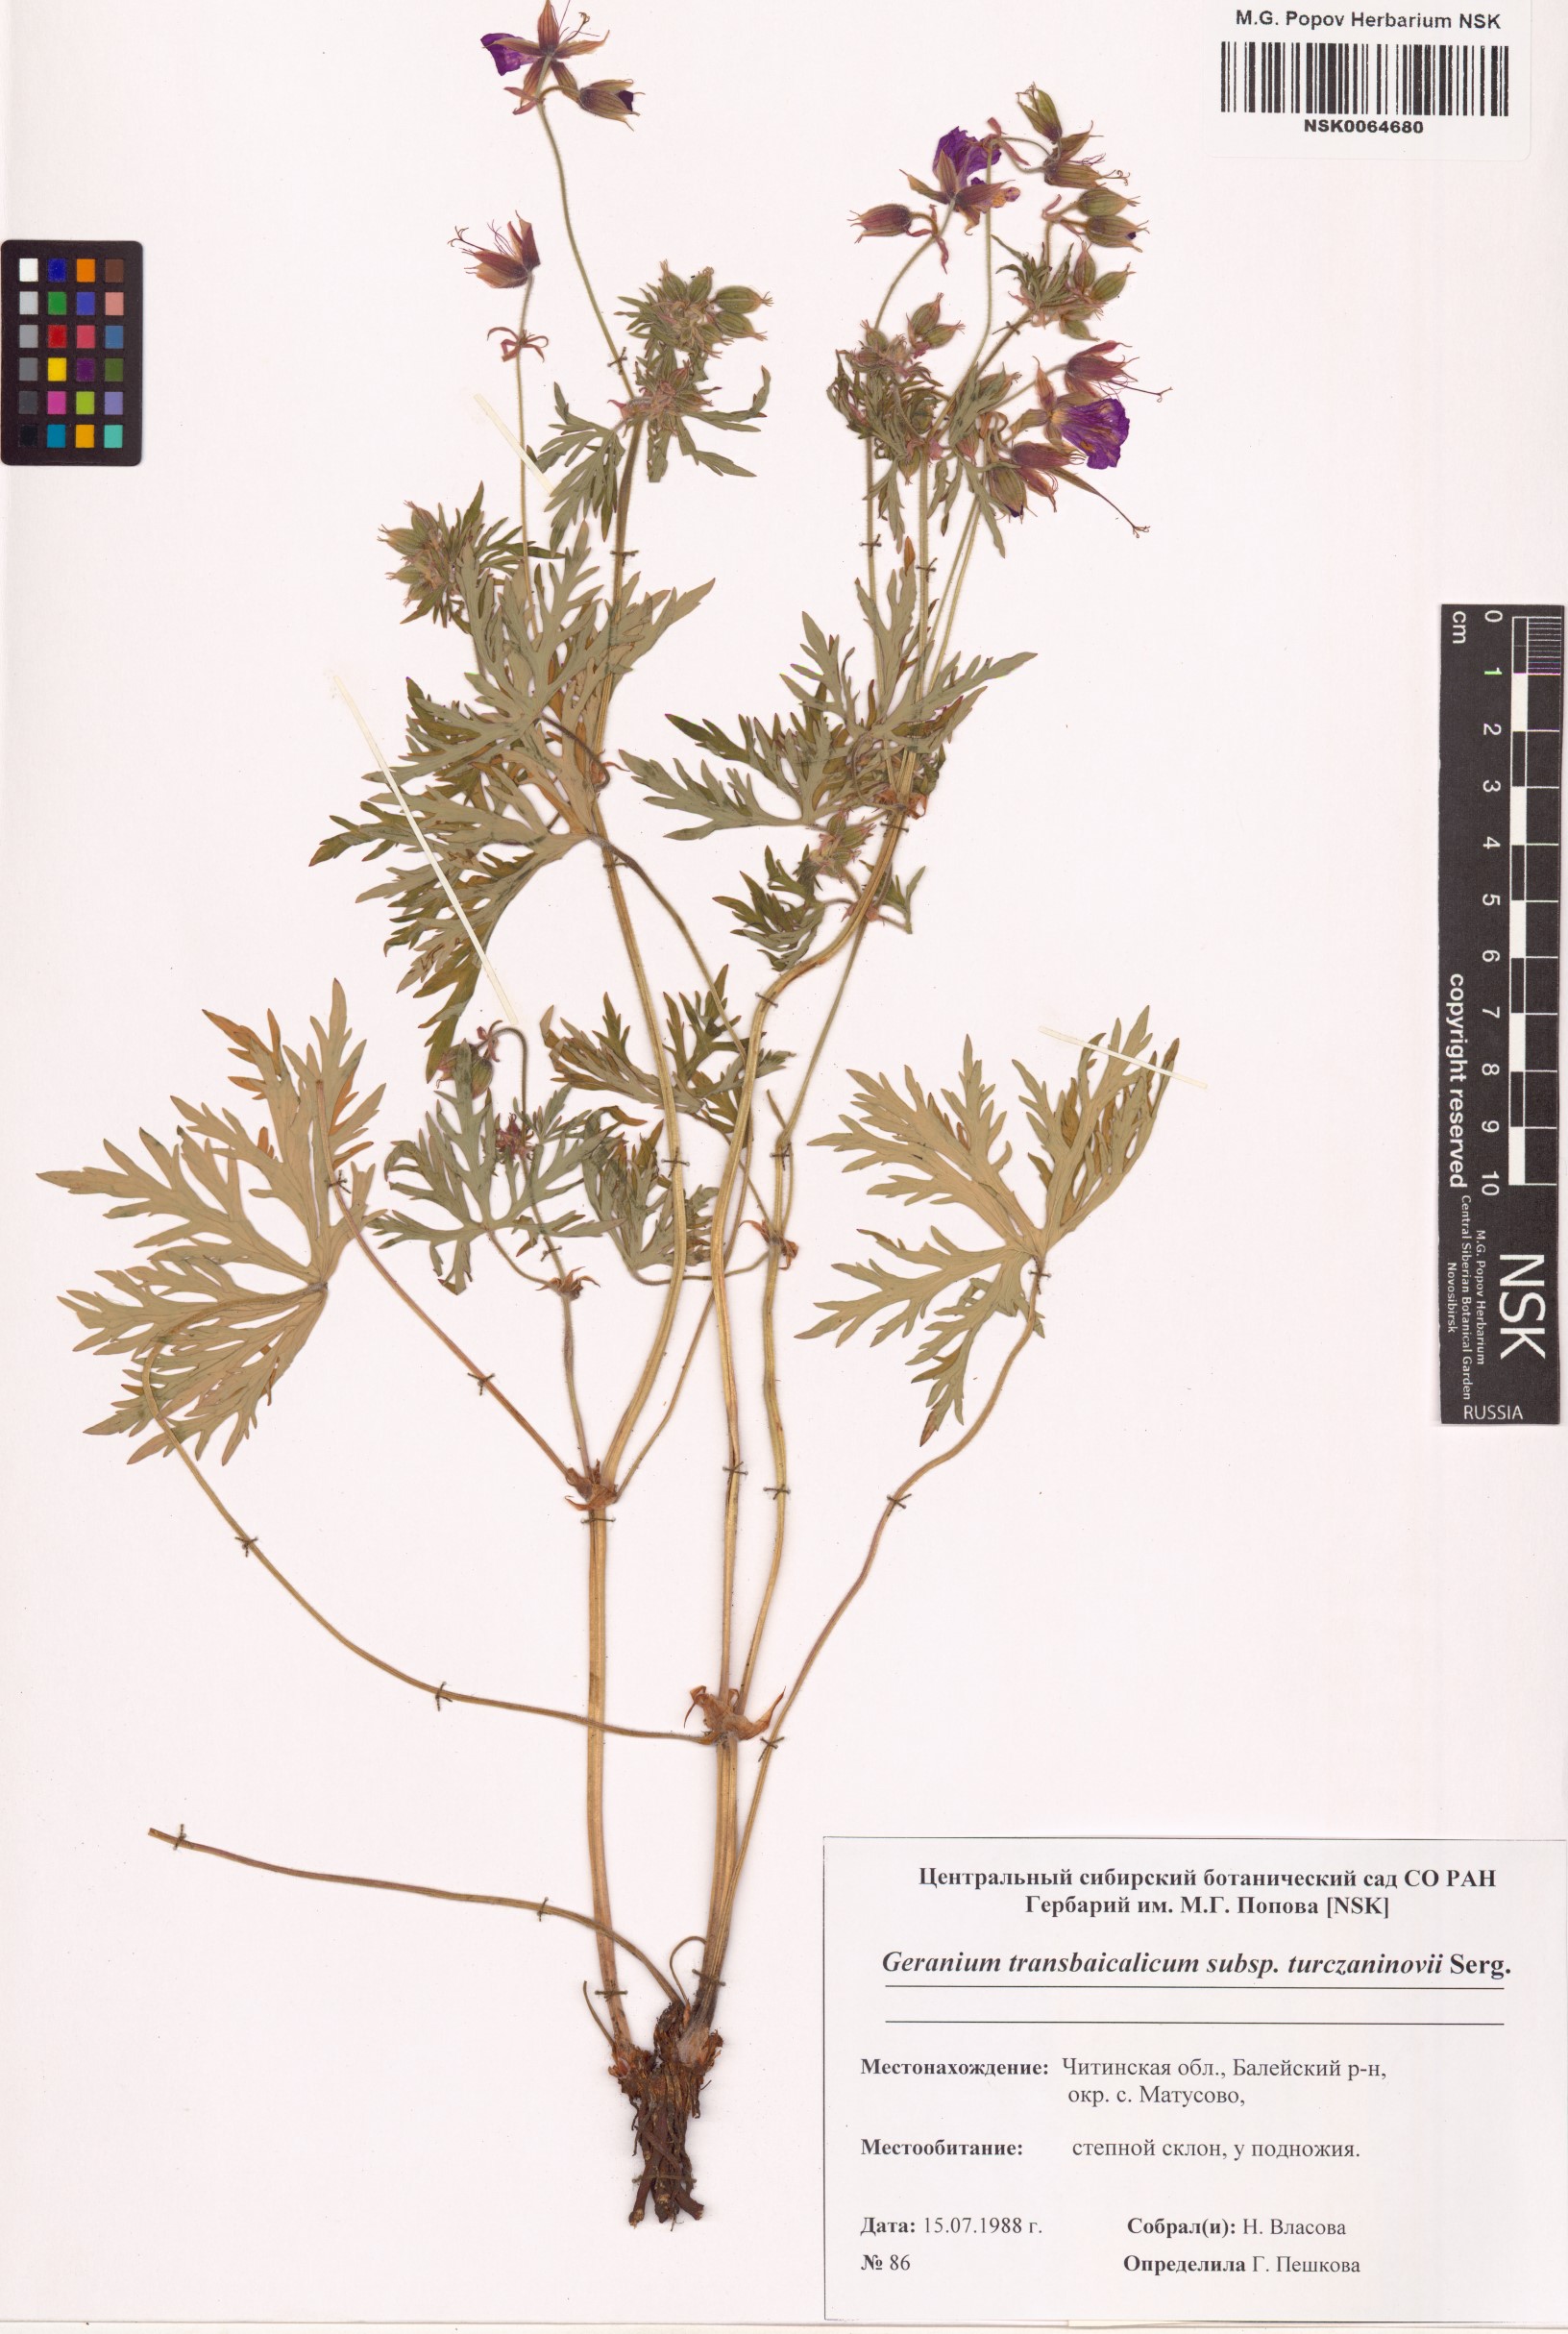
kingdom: Plantae
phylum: Tracheophyta
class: Magnoliopsida
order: Geraniales
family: Geraniaceae
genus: Geranium
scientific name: Geranium pratense
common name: Meadow crane's-bill
